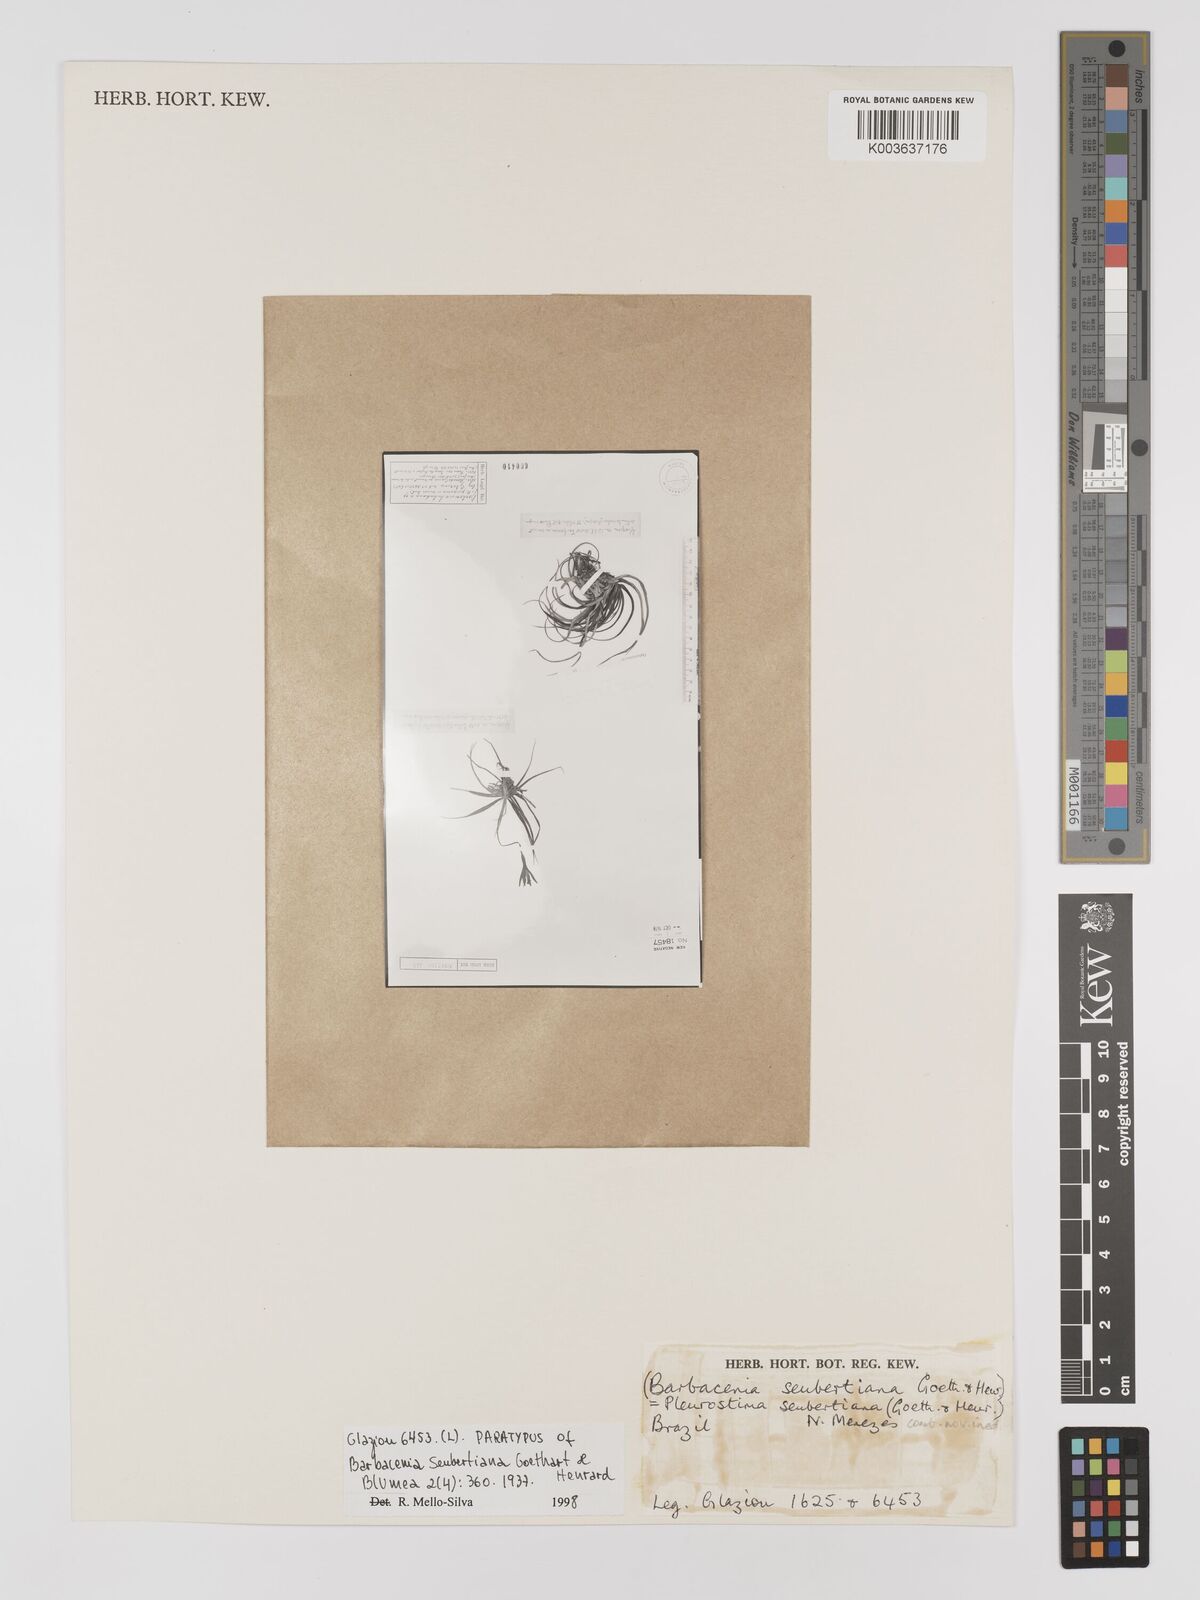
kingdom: Plantae
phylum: Tracheophyta
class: Liliopsida
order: Pandanales
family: Velloziaceae
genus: Barbacenia
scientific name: Barbacenia seubertiana
